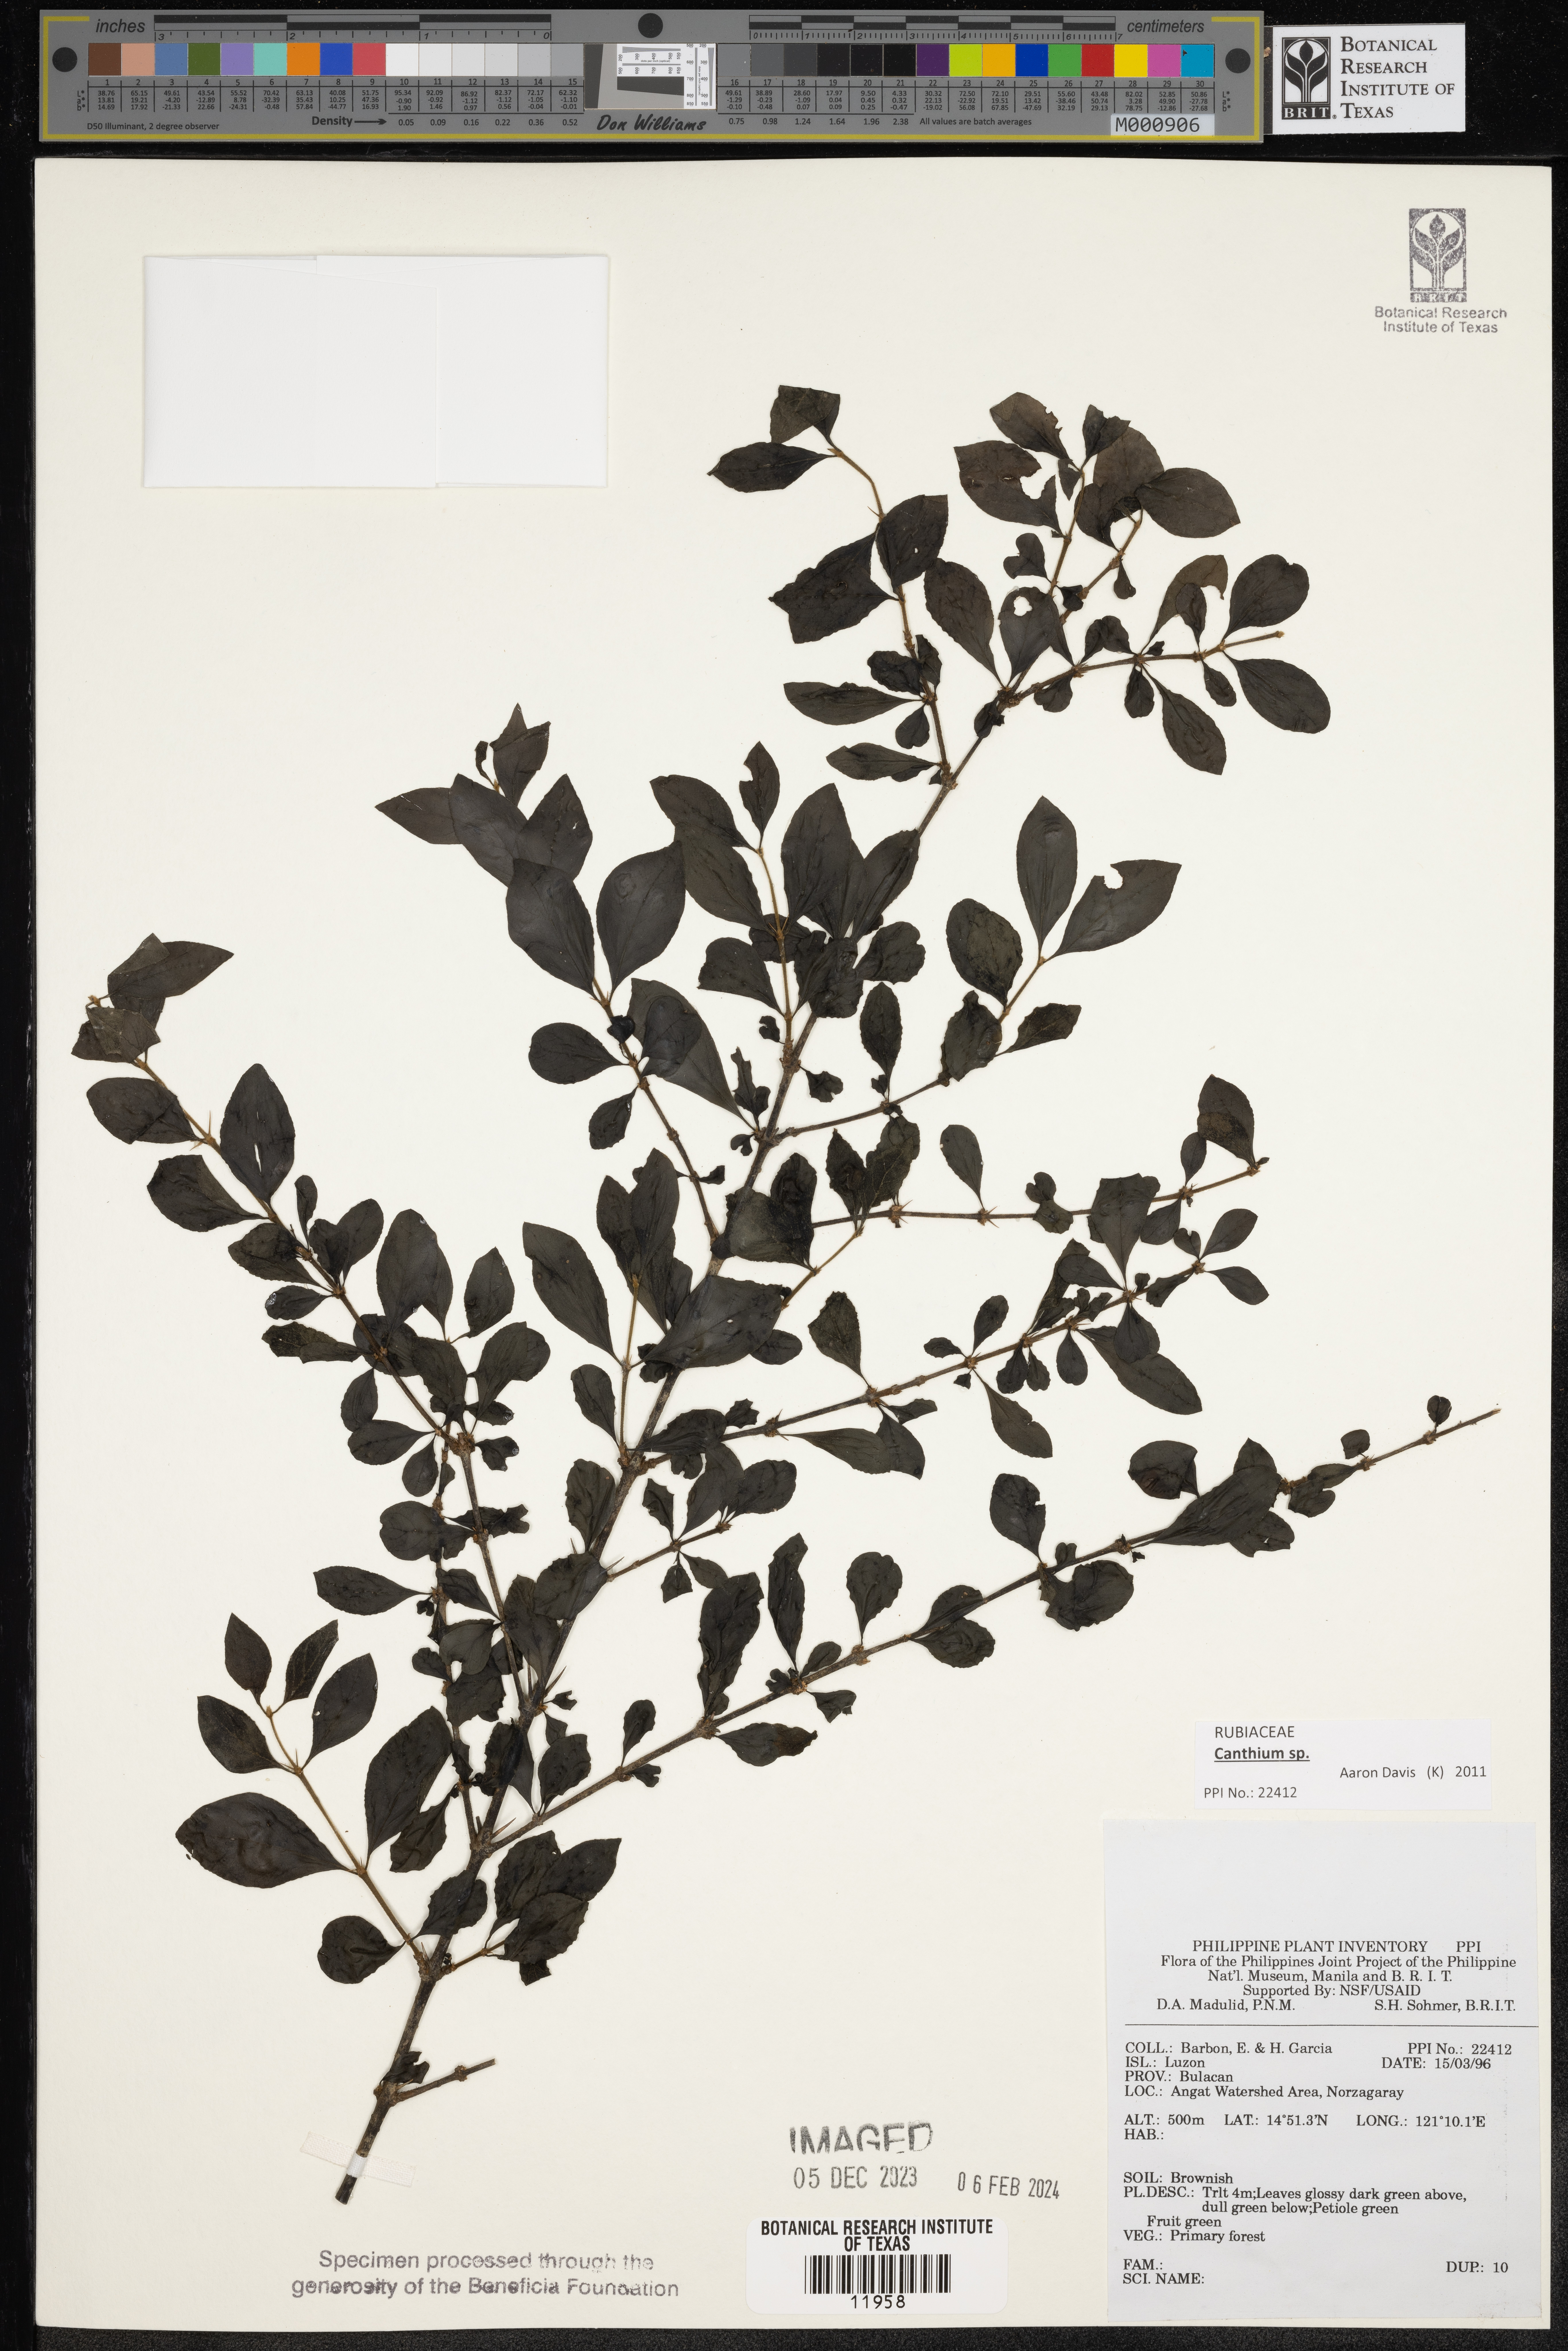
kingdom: Plantae
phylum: Tracheophyta
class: Magnoliopsida
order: Gentianales
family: Rubiaceae
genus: Canthium
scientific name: Canthium
